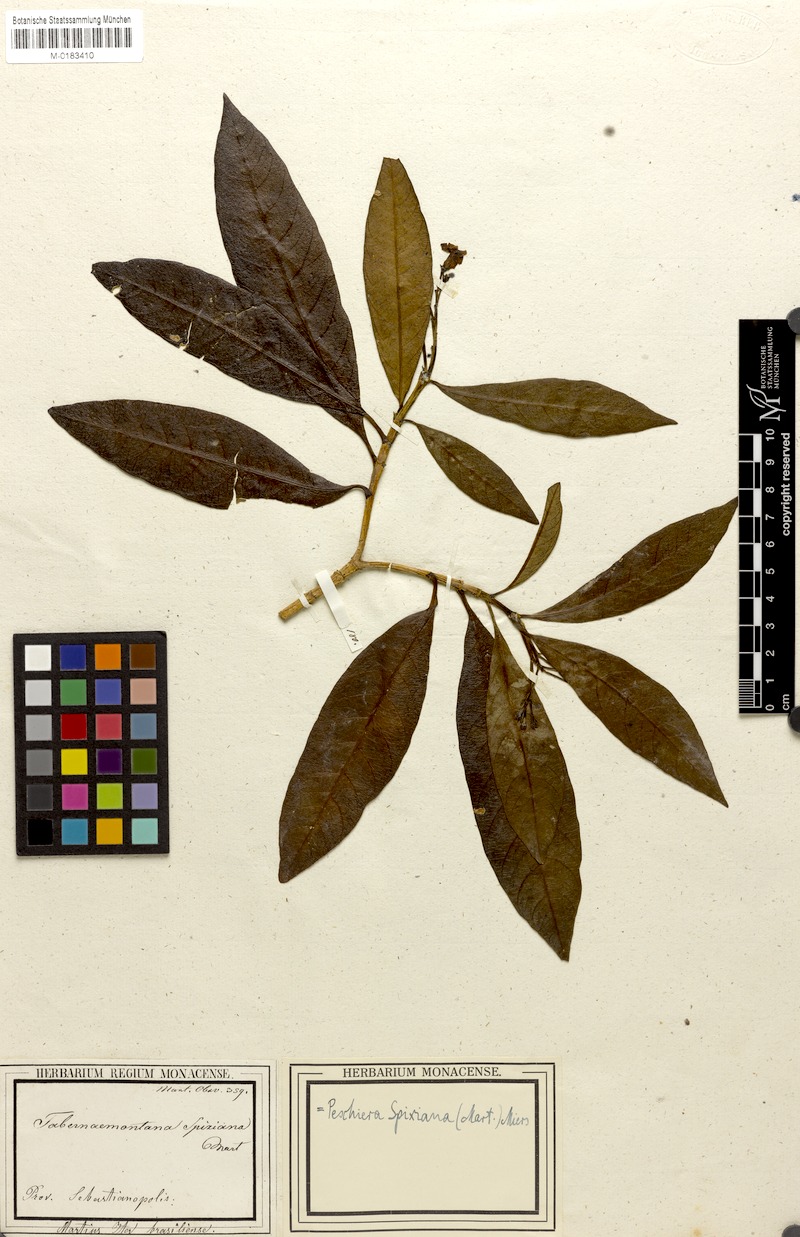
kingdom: Plantae
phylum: Tracheophyta
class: Magnoliopsida
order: Gentianales
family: Apocynaceae
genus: Tabernaemontana
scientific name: Tabernaemontana laeta
